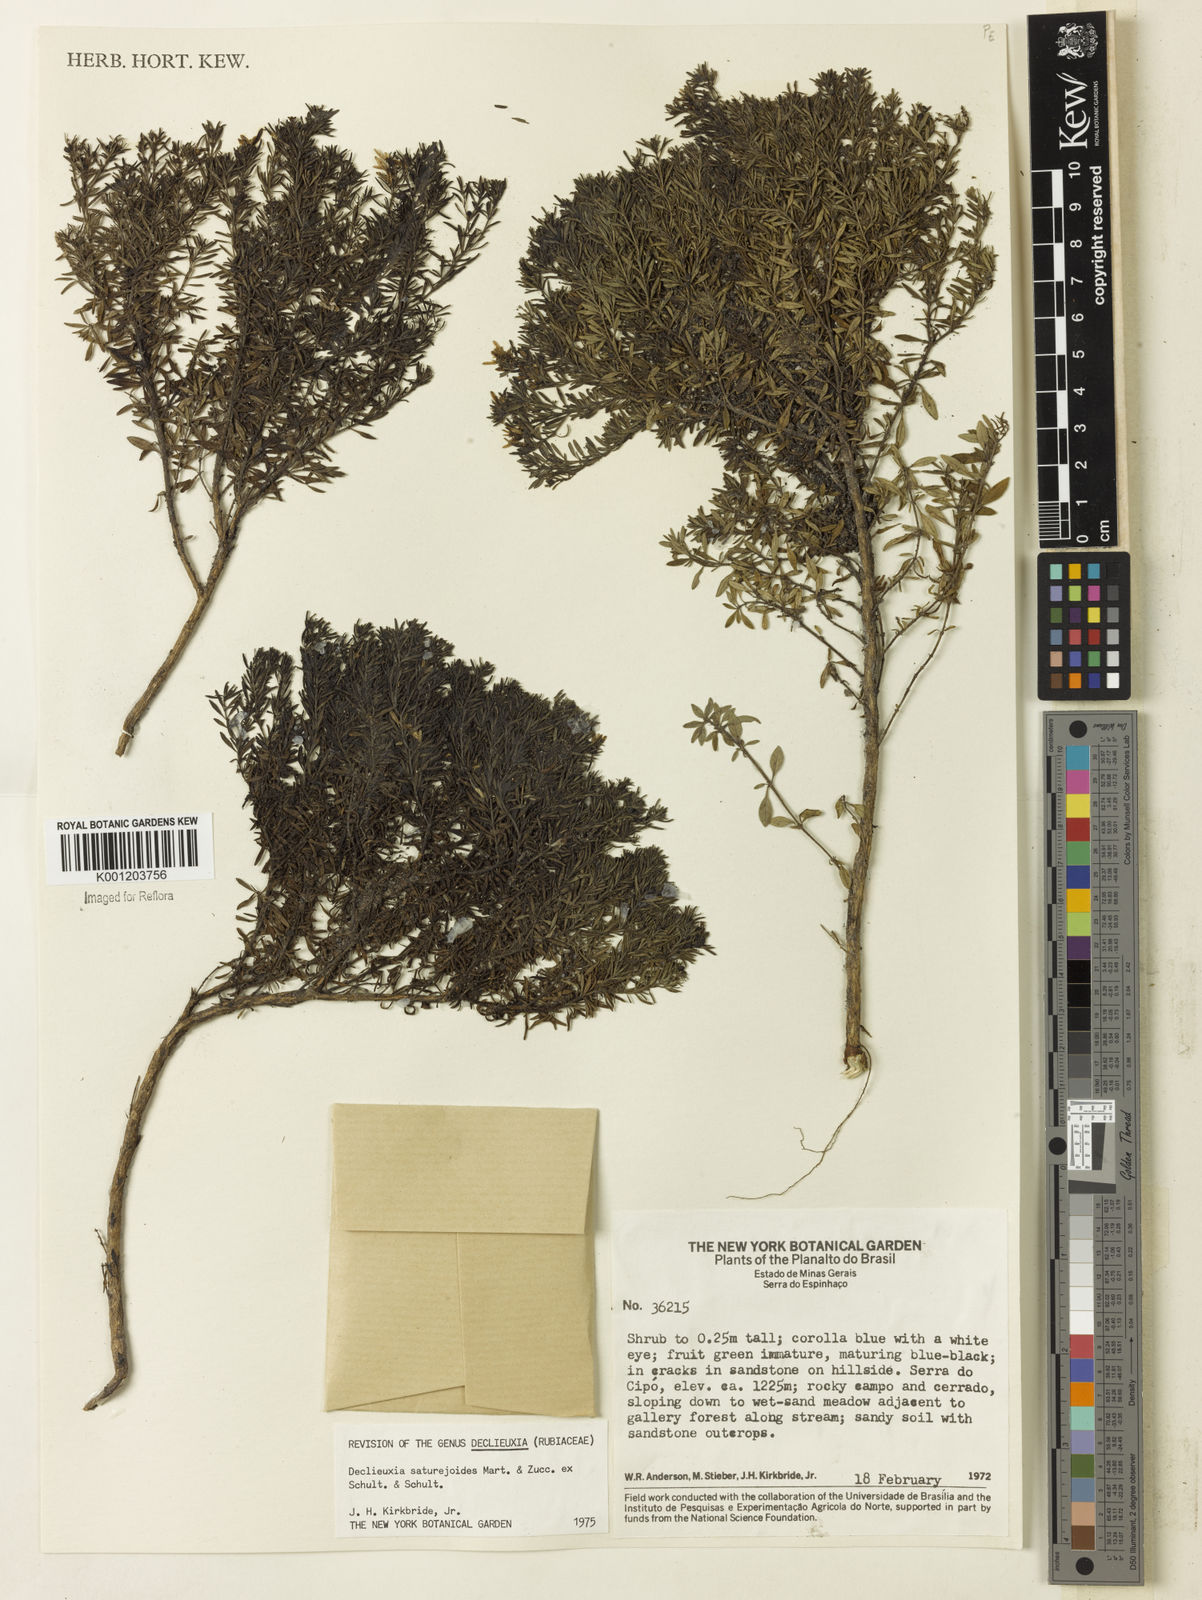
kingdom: Plantae
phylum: Tracheophyta
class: Magnoliopsida
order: Gentianales
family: Rubiaceae
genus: Declieuxia
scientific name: Declieuxia
